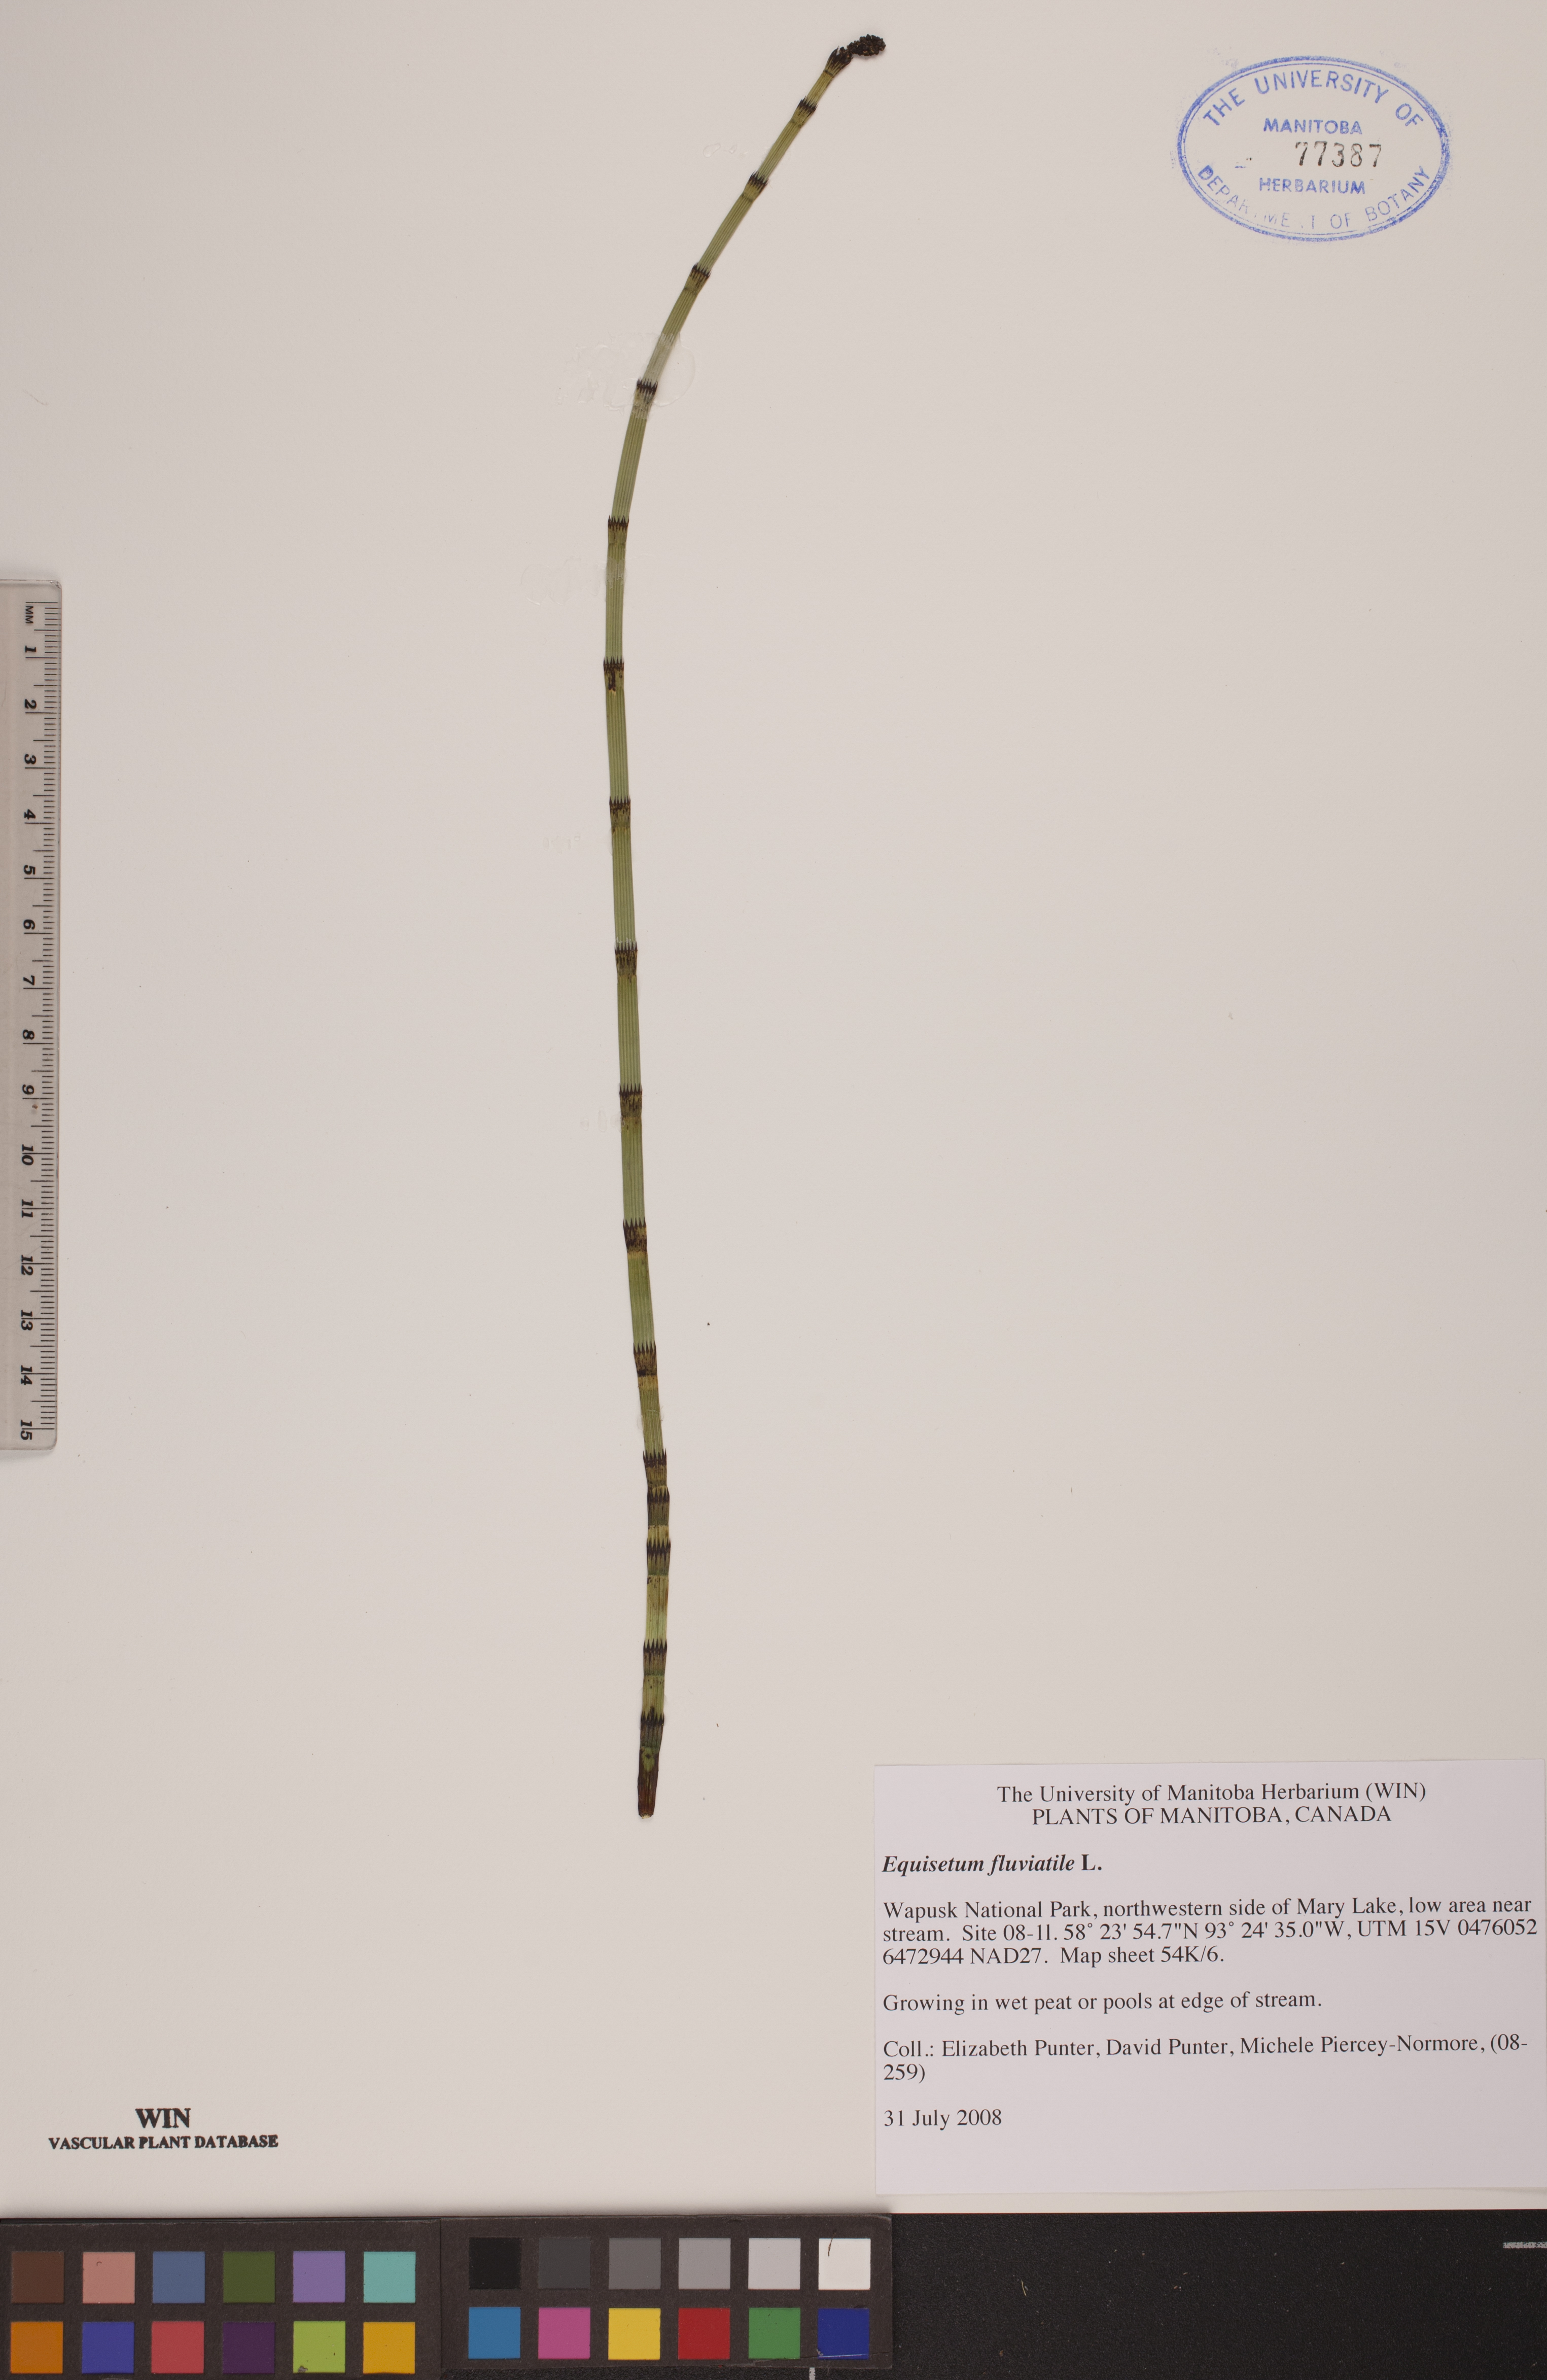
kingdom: Plantae
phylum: Tracheophyta
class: Polypodiopsida
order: Equisetales
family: Equisetaceae
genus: Equisetum
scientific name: Equisetum fluviatile
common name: Water horsetail
